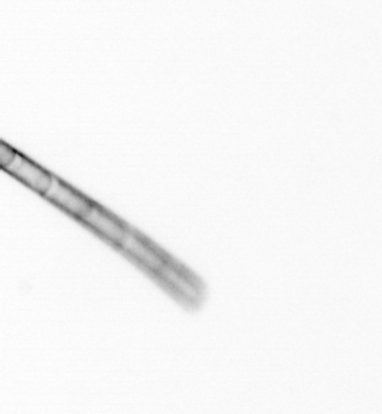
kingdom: Chromista
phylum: Ochrophyta
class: Bacillariophyceae
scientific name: Bacillariophyceae
